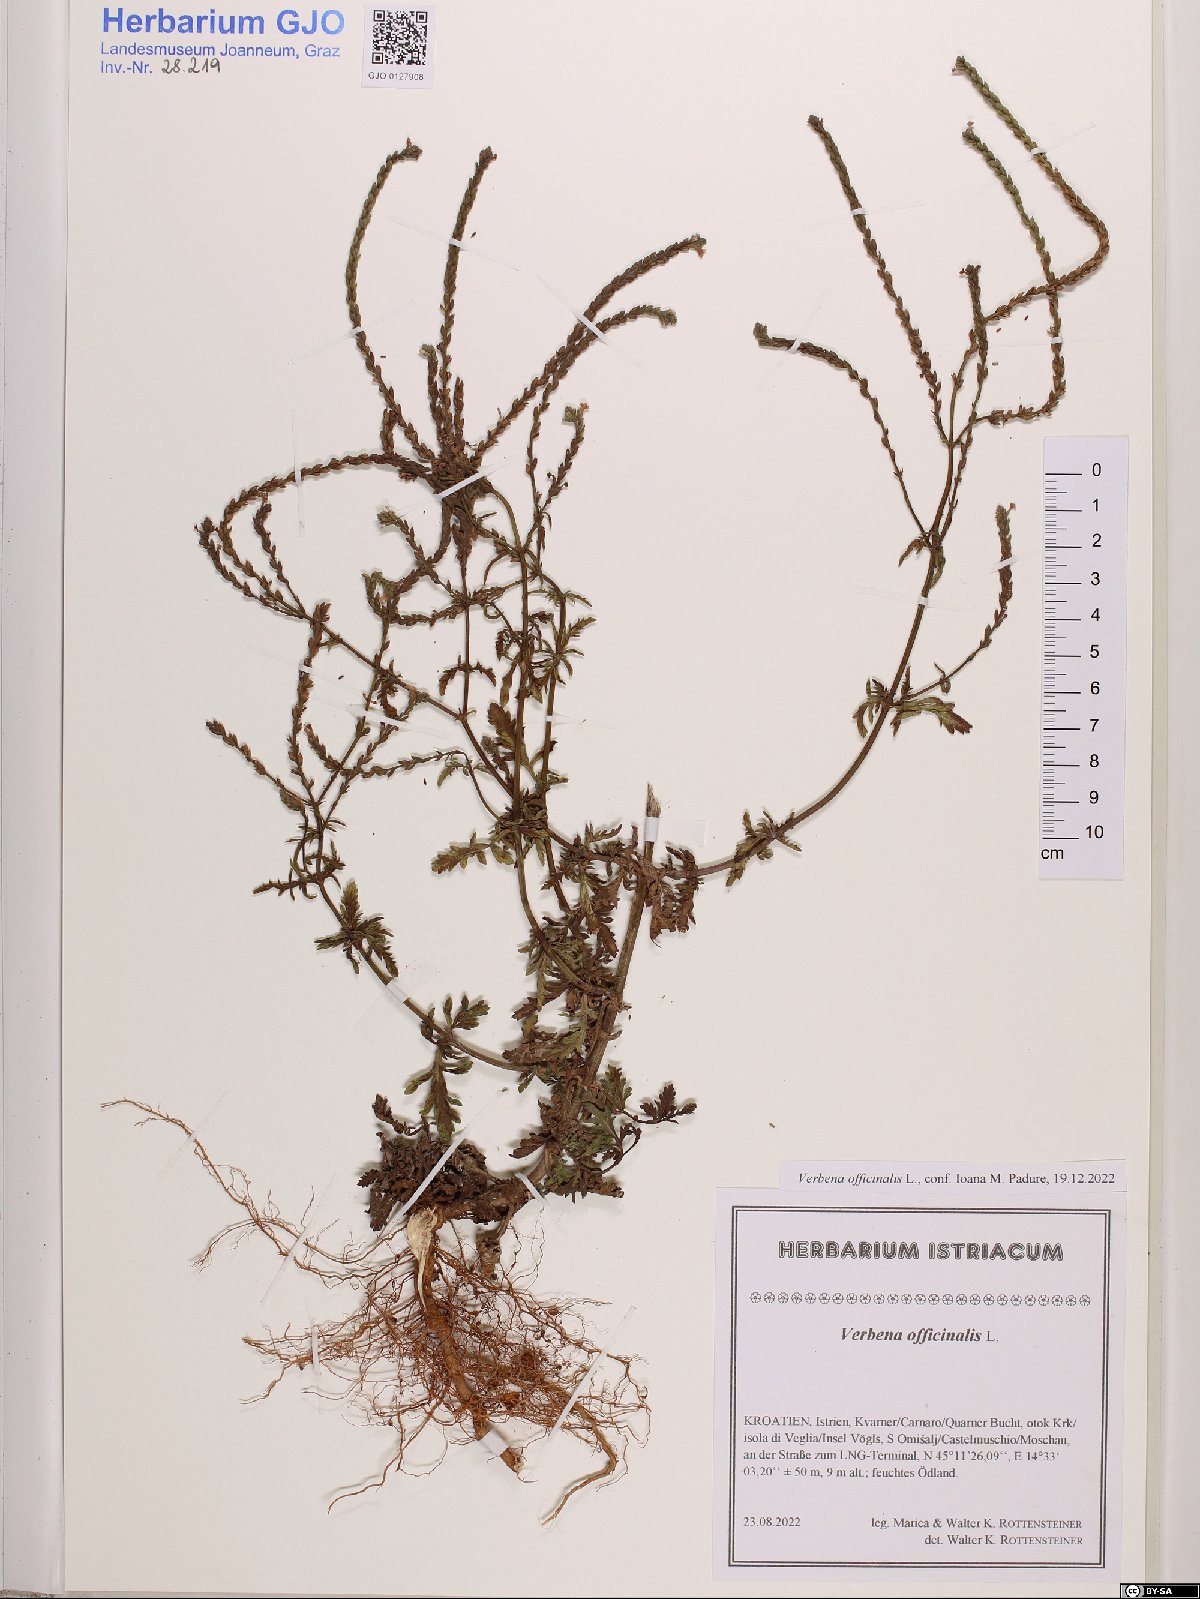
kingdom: Plantae
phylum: Tracheophyta
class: Magnoliopsida
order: Lamiales
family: Verbenaceae
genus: Verbena
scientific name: Verbena officinalis
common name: Vervain
